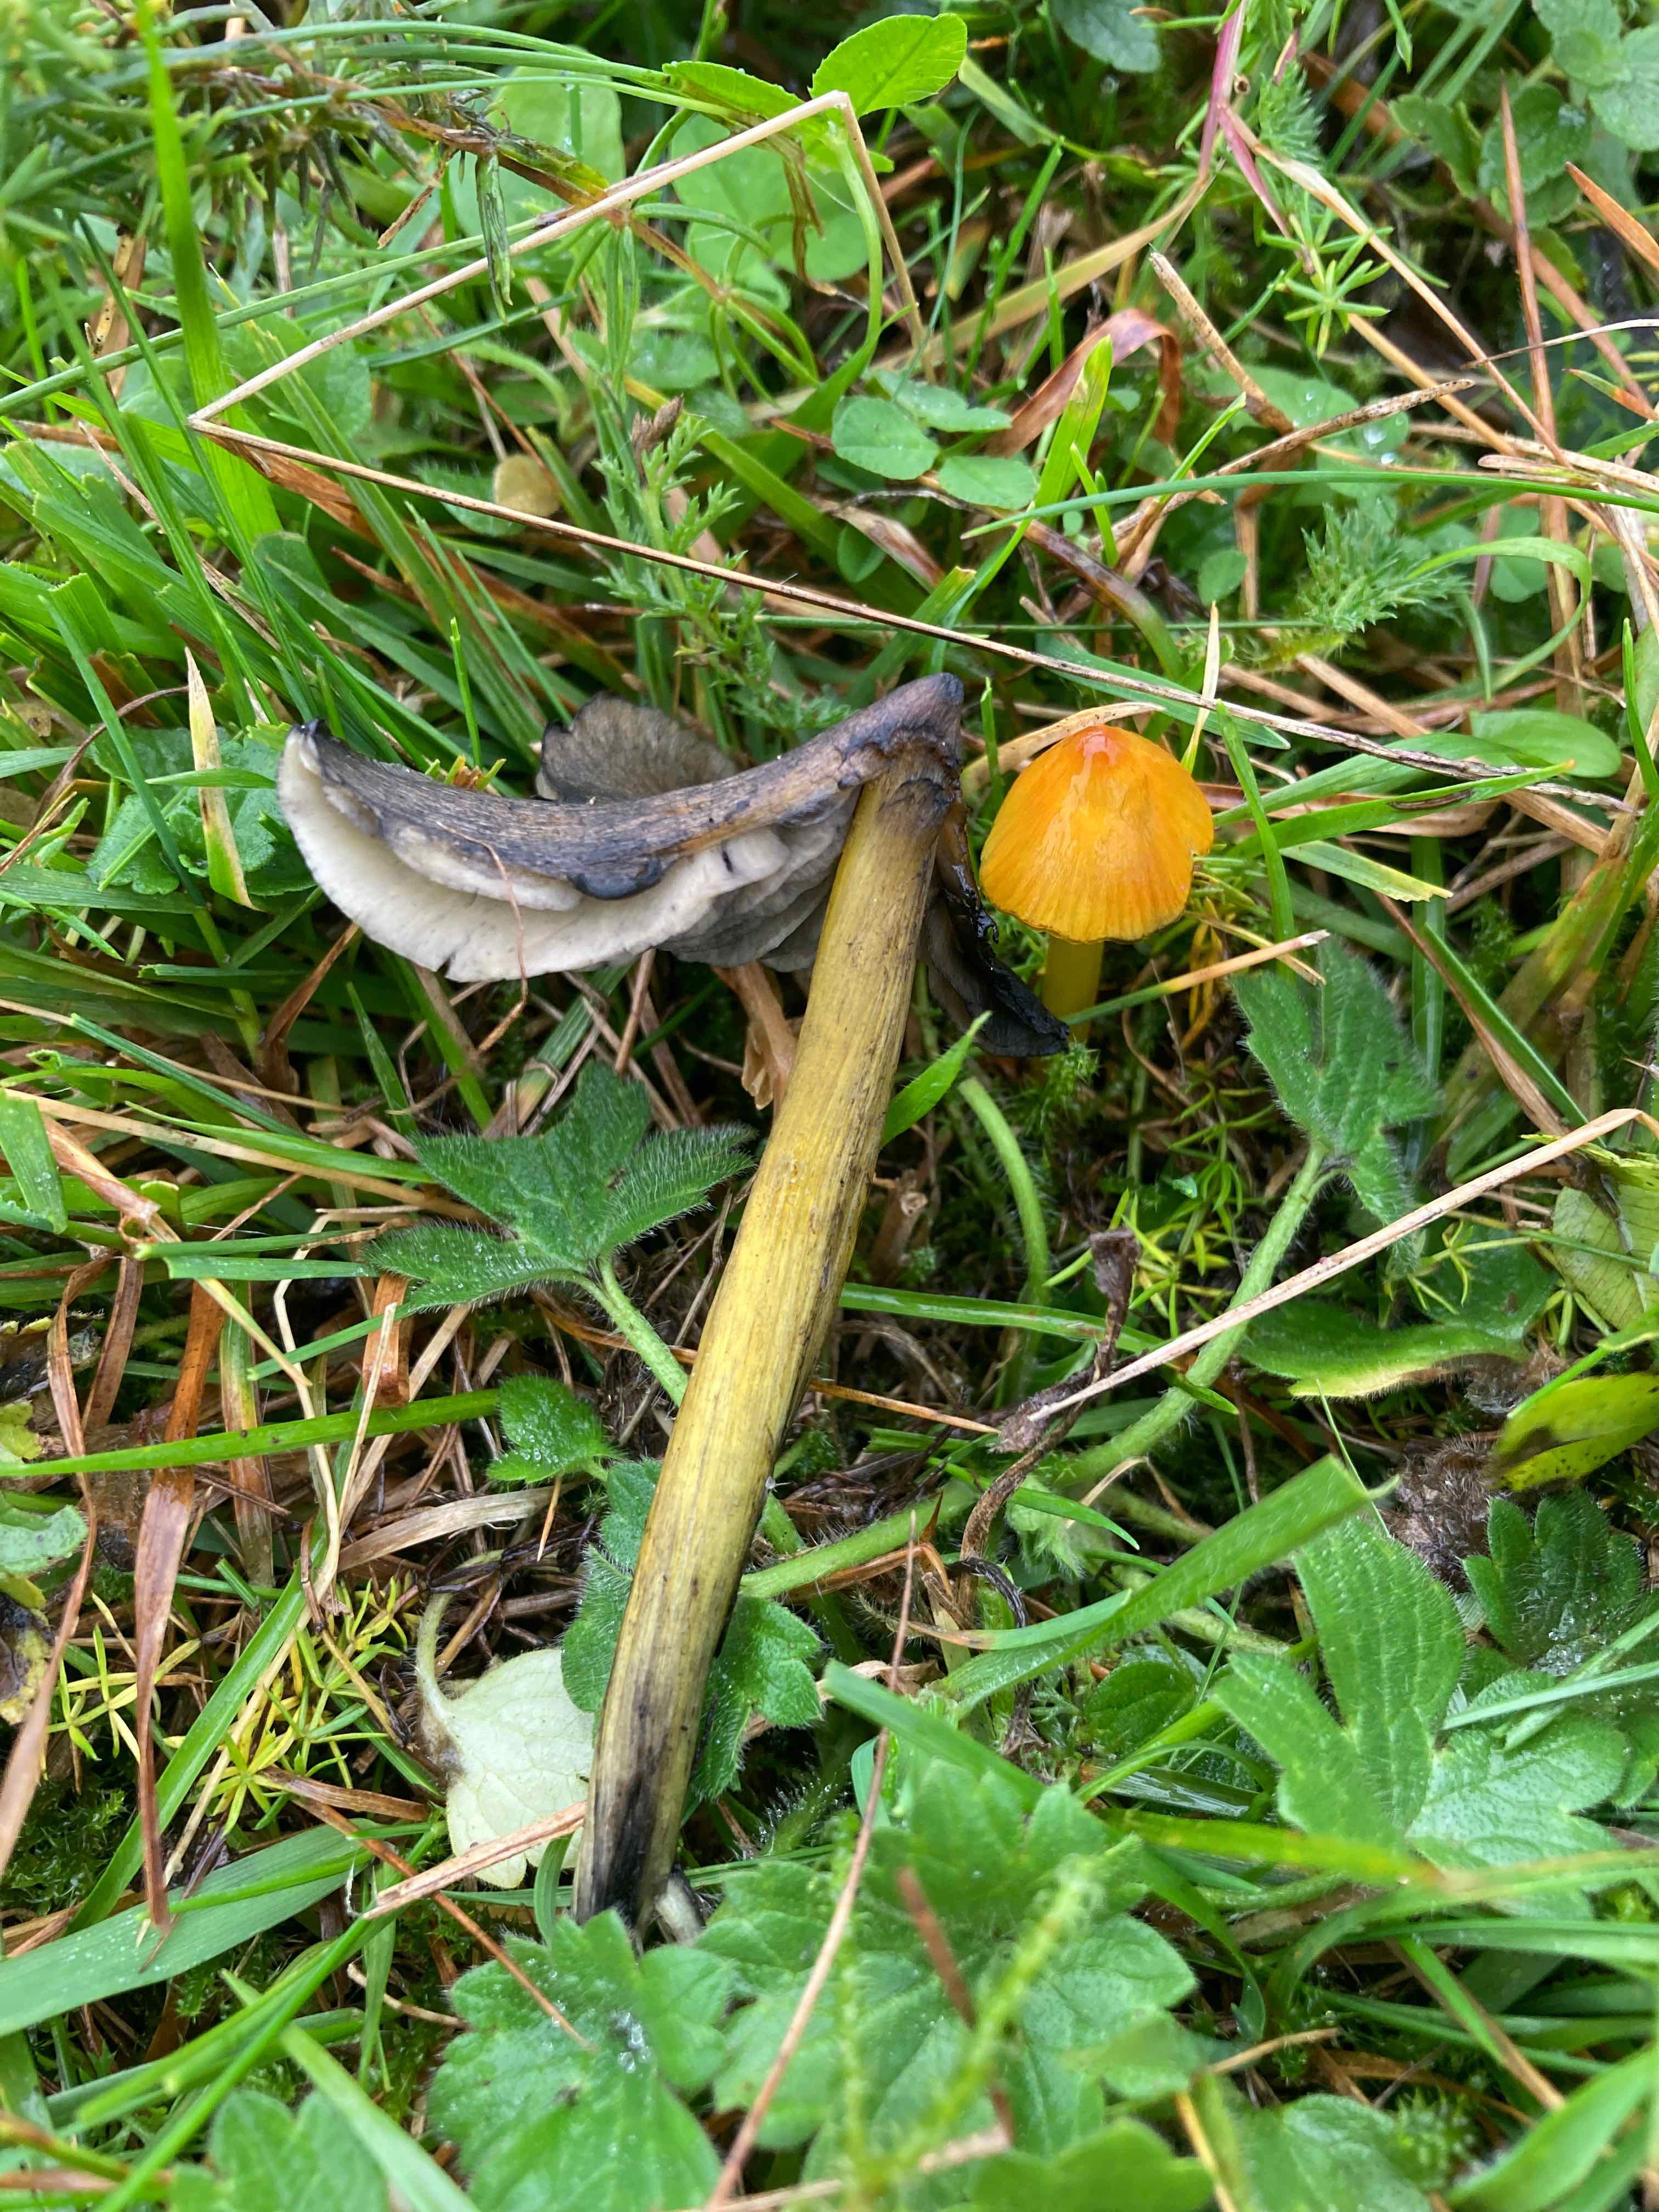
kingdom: Fungi
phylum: Basidiomycota
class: Agaricomycetes
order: Agaricales
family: Hygrophoraceae
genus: Hygrocybe
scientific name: Hygrocybe conica
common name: kegle-vokshat
